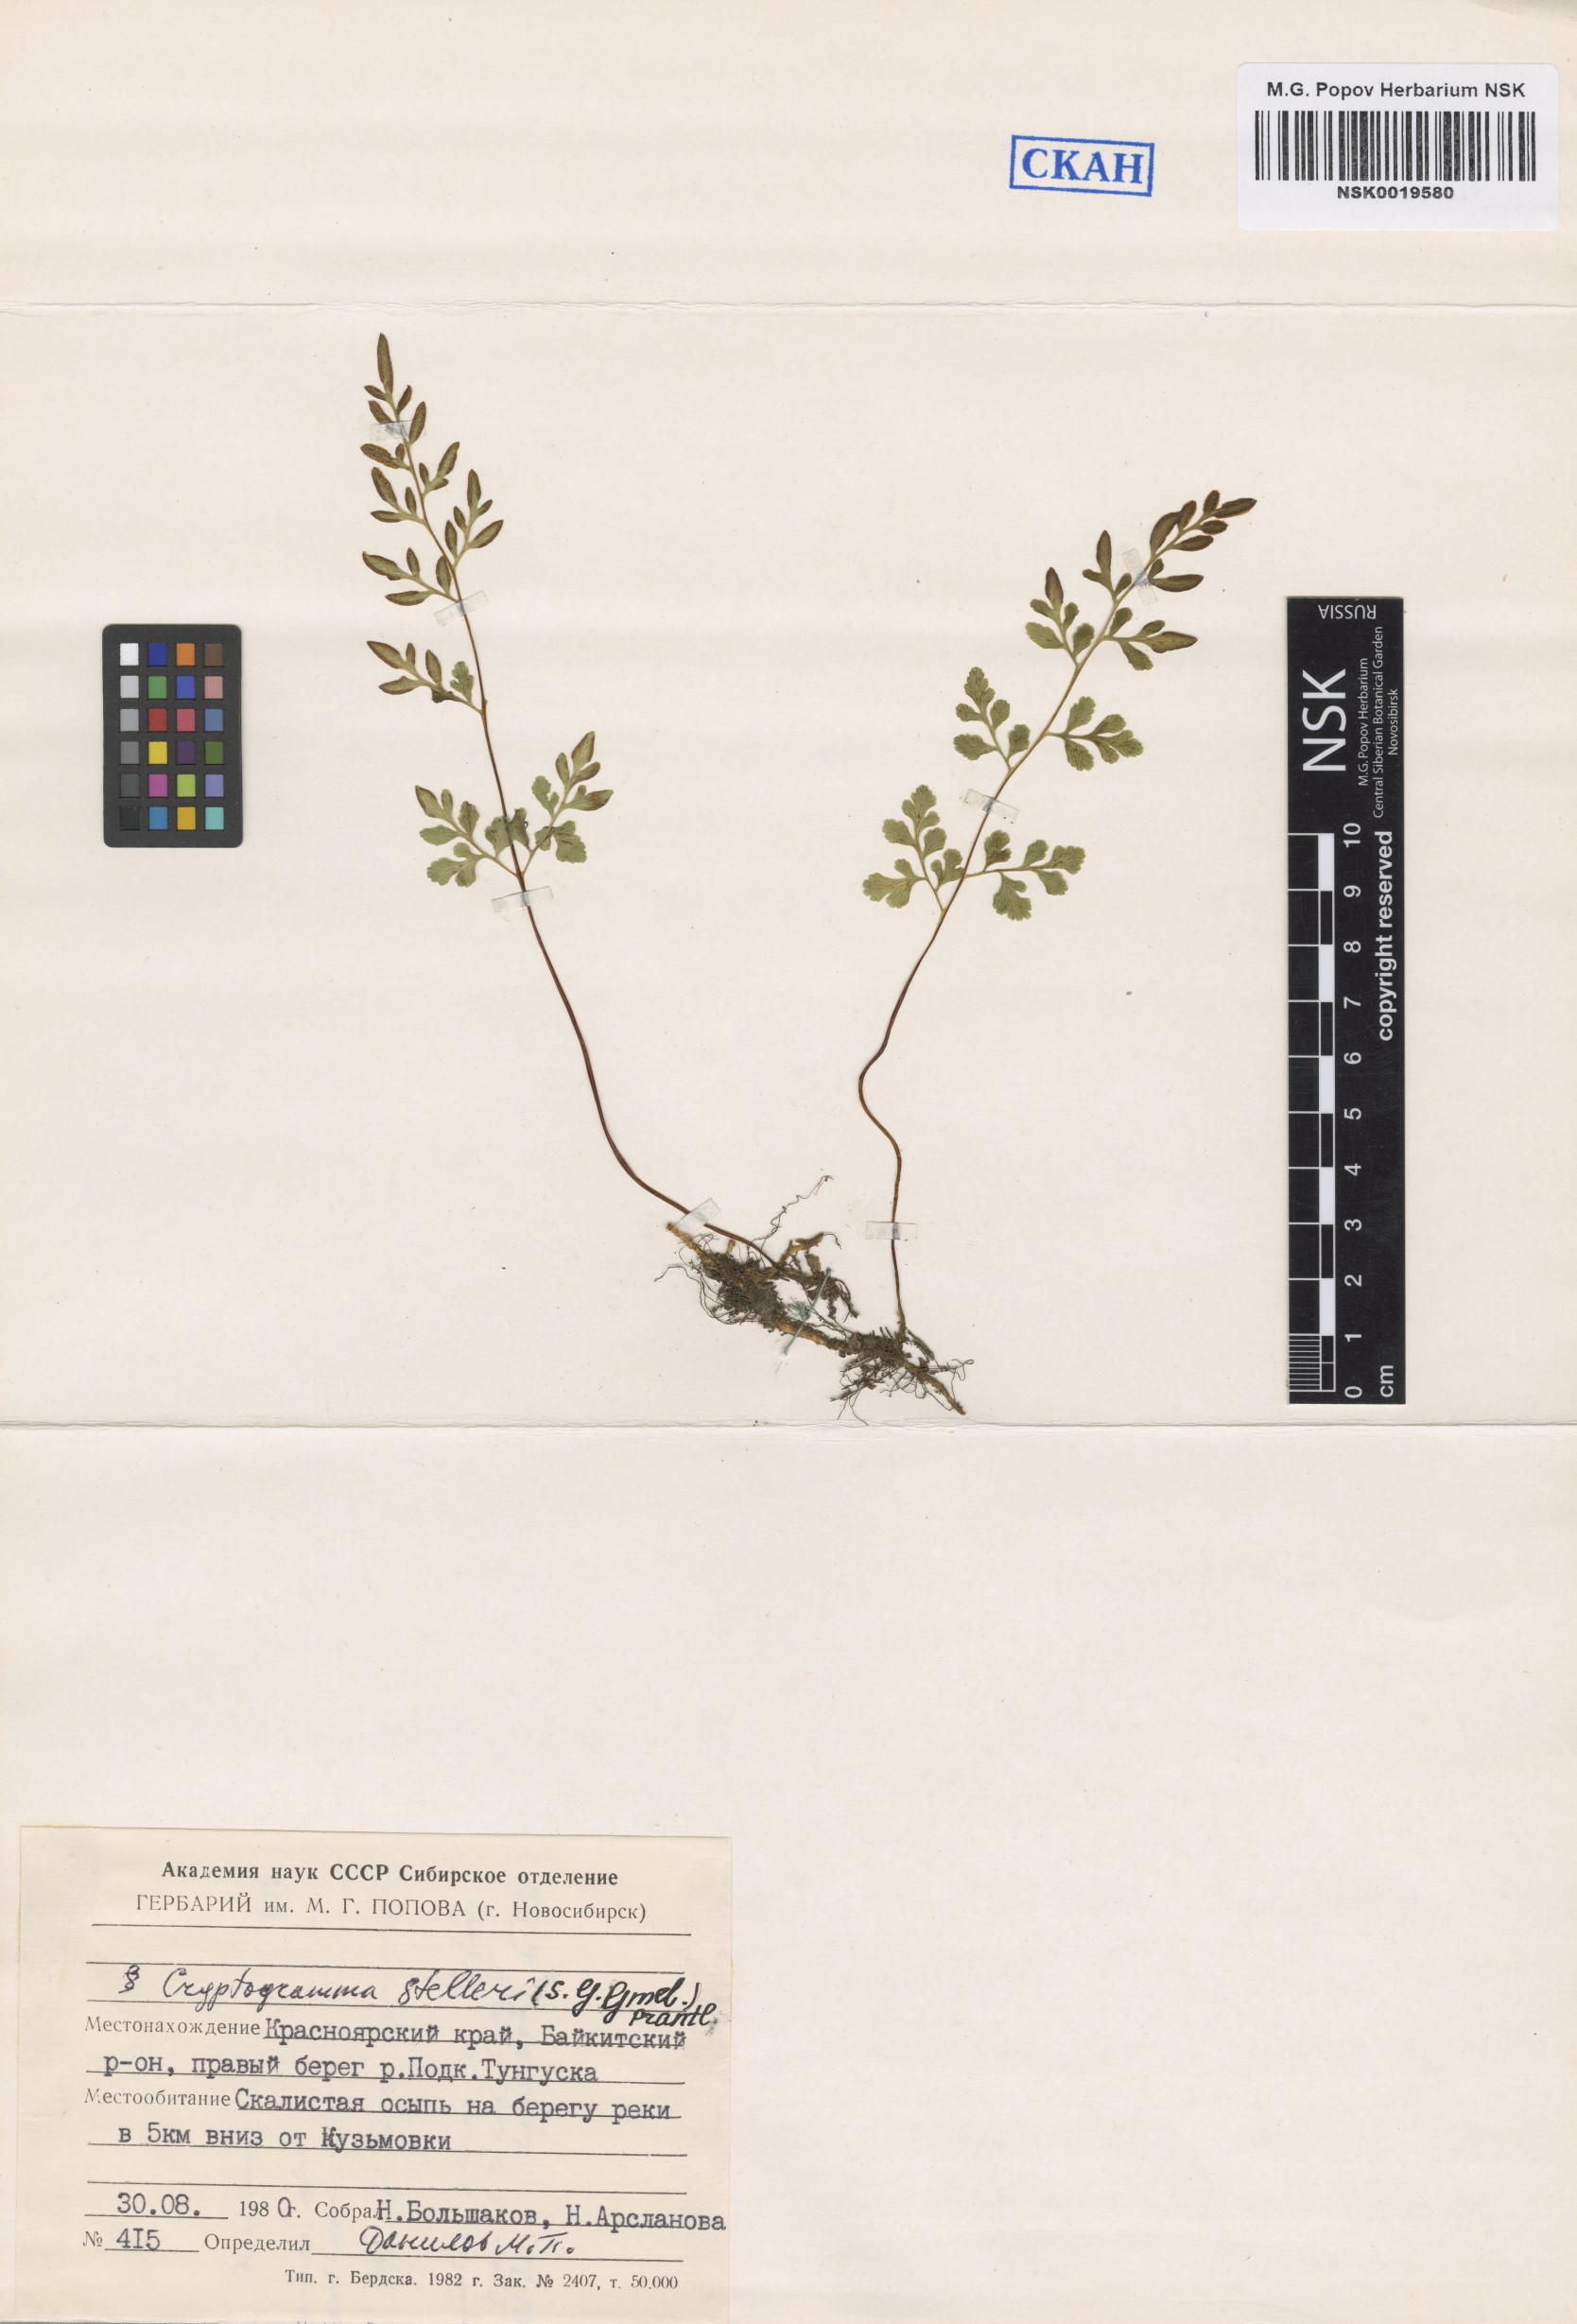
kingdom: Plantae
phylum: Tracheophyta
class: Polypodiopsida
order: Polypodiales
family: Pteridaceae
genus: Cryptogramma
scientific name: Cryptogramma stelleri
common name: Cliff-brake
